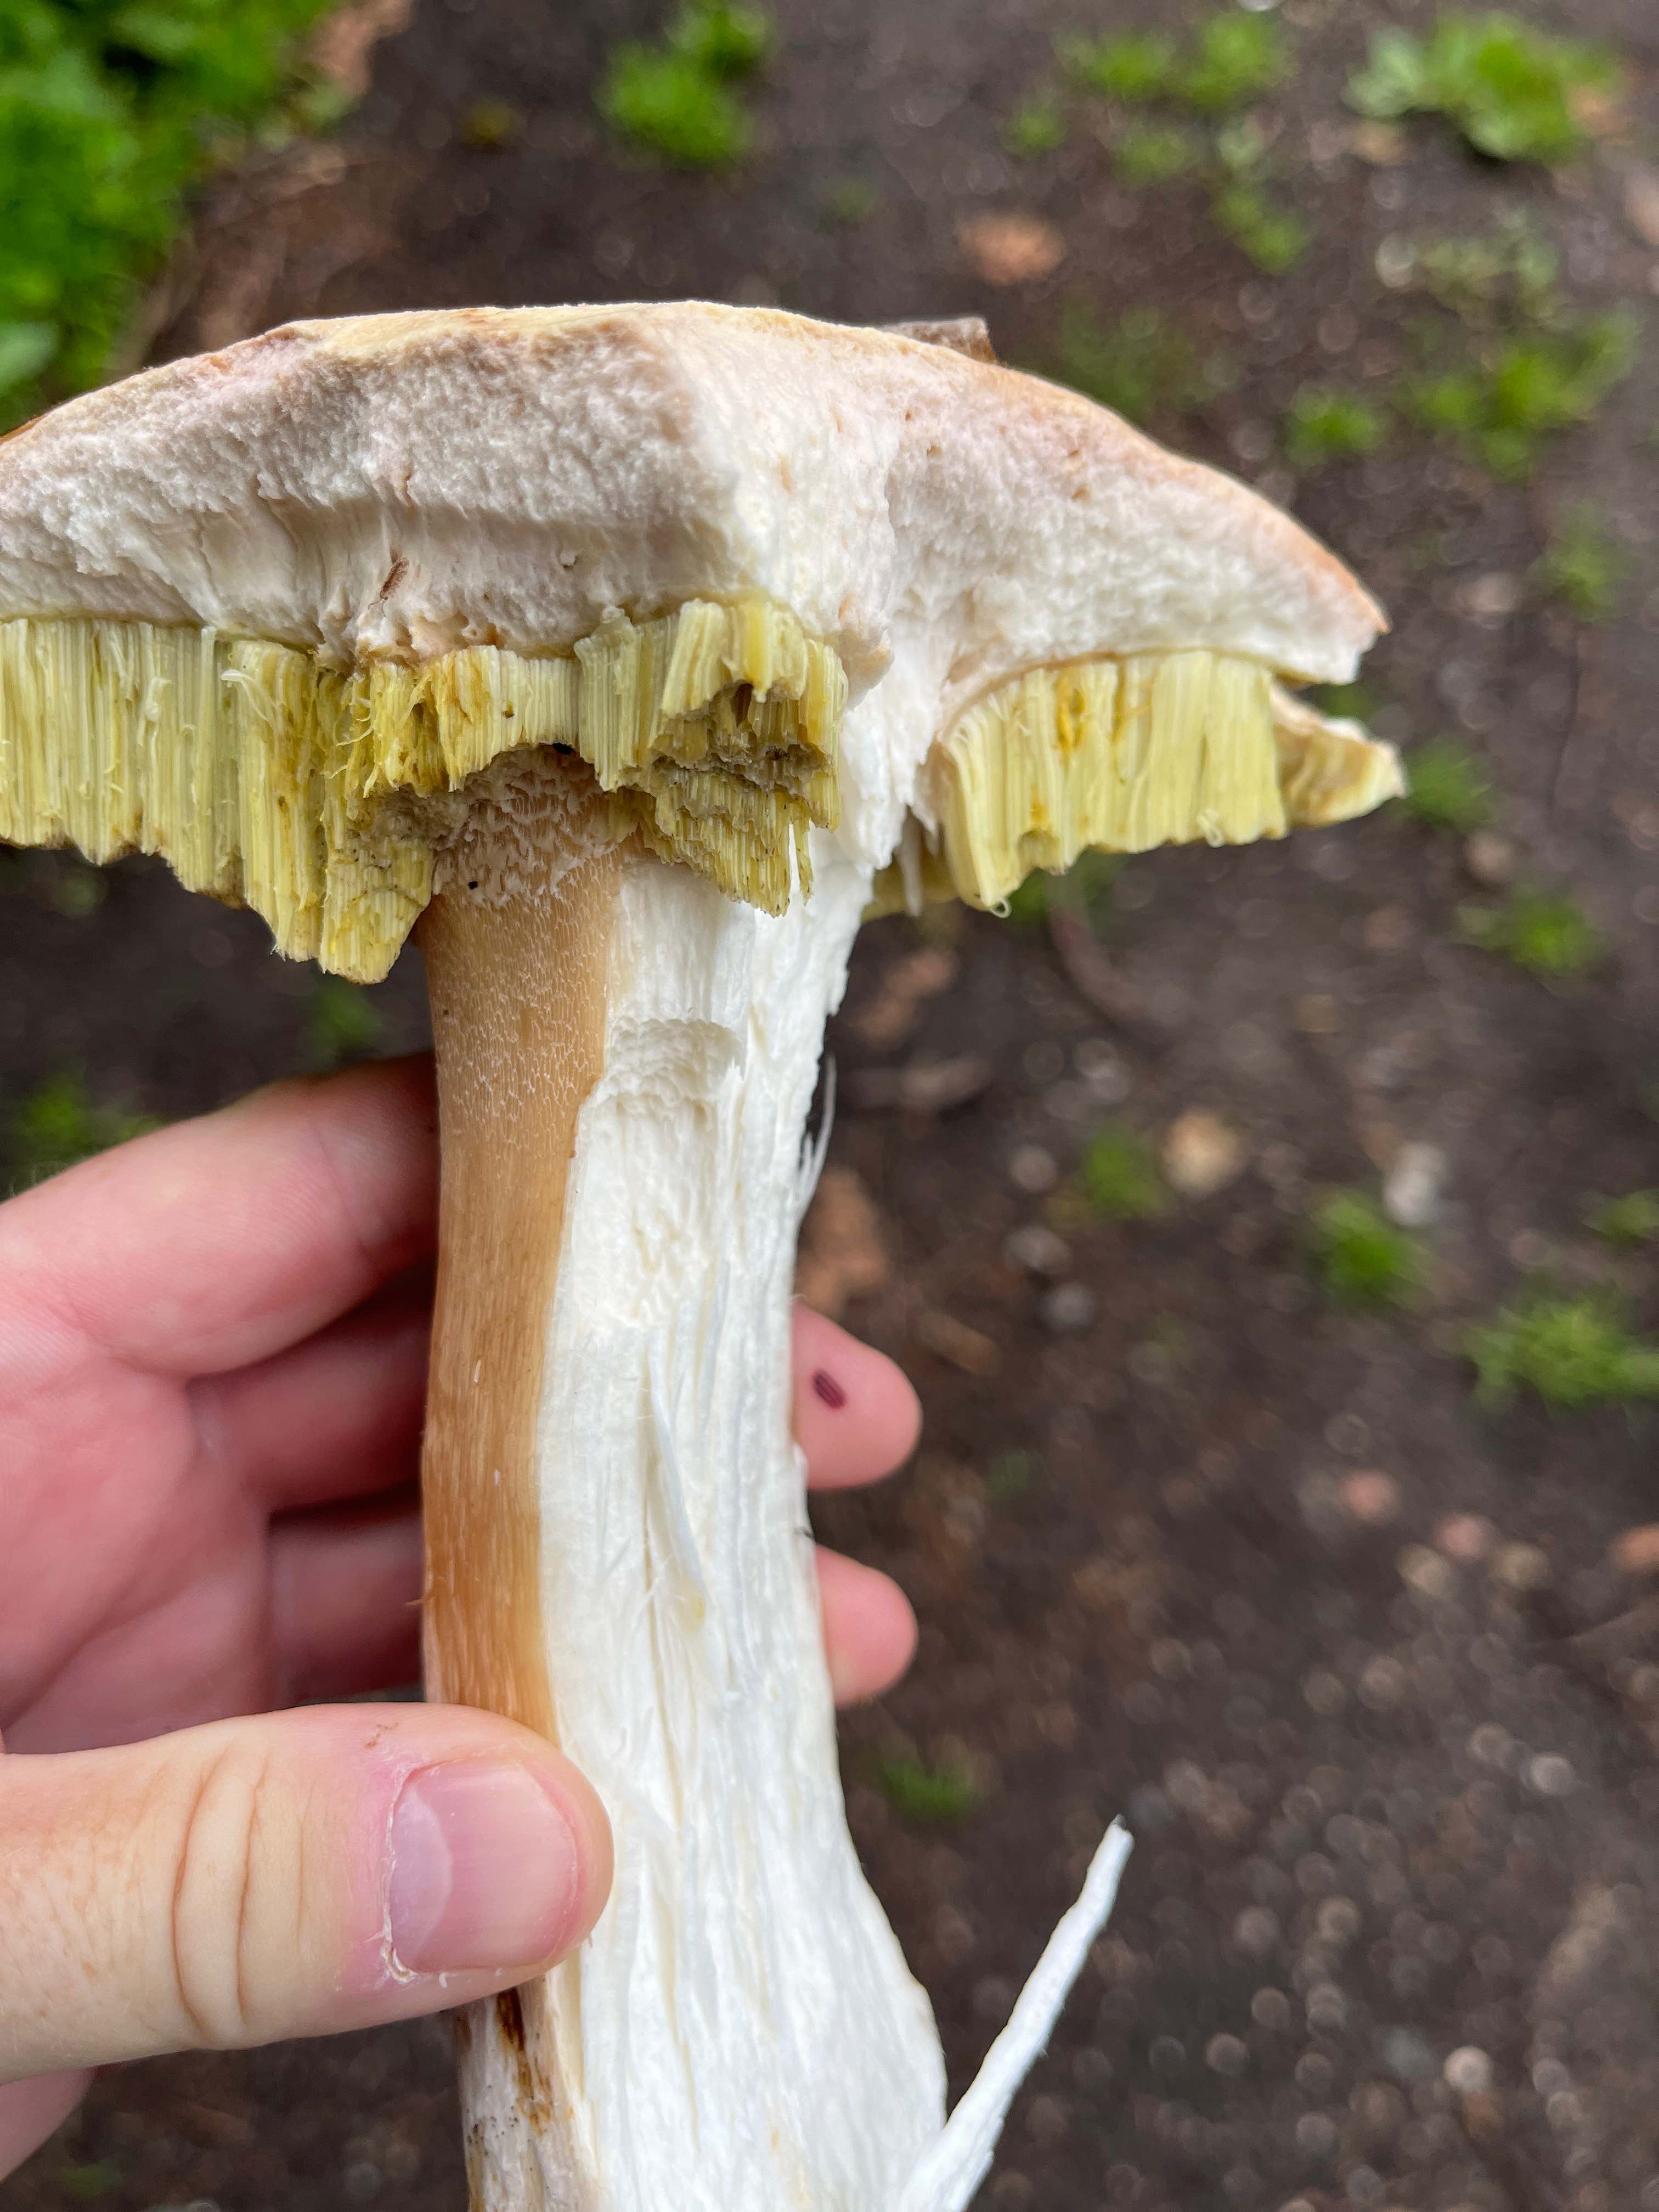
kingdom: Fungi
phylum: Basidiomycota
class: Agaricomycetes
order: Boletales
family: Boletaceae
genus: Boletus
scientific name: Boletus edulis
